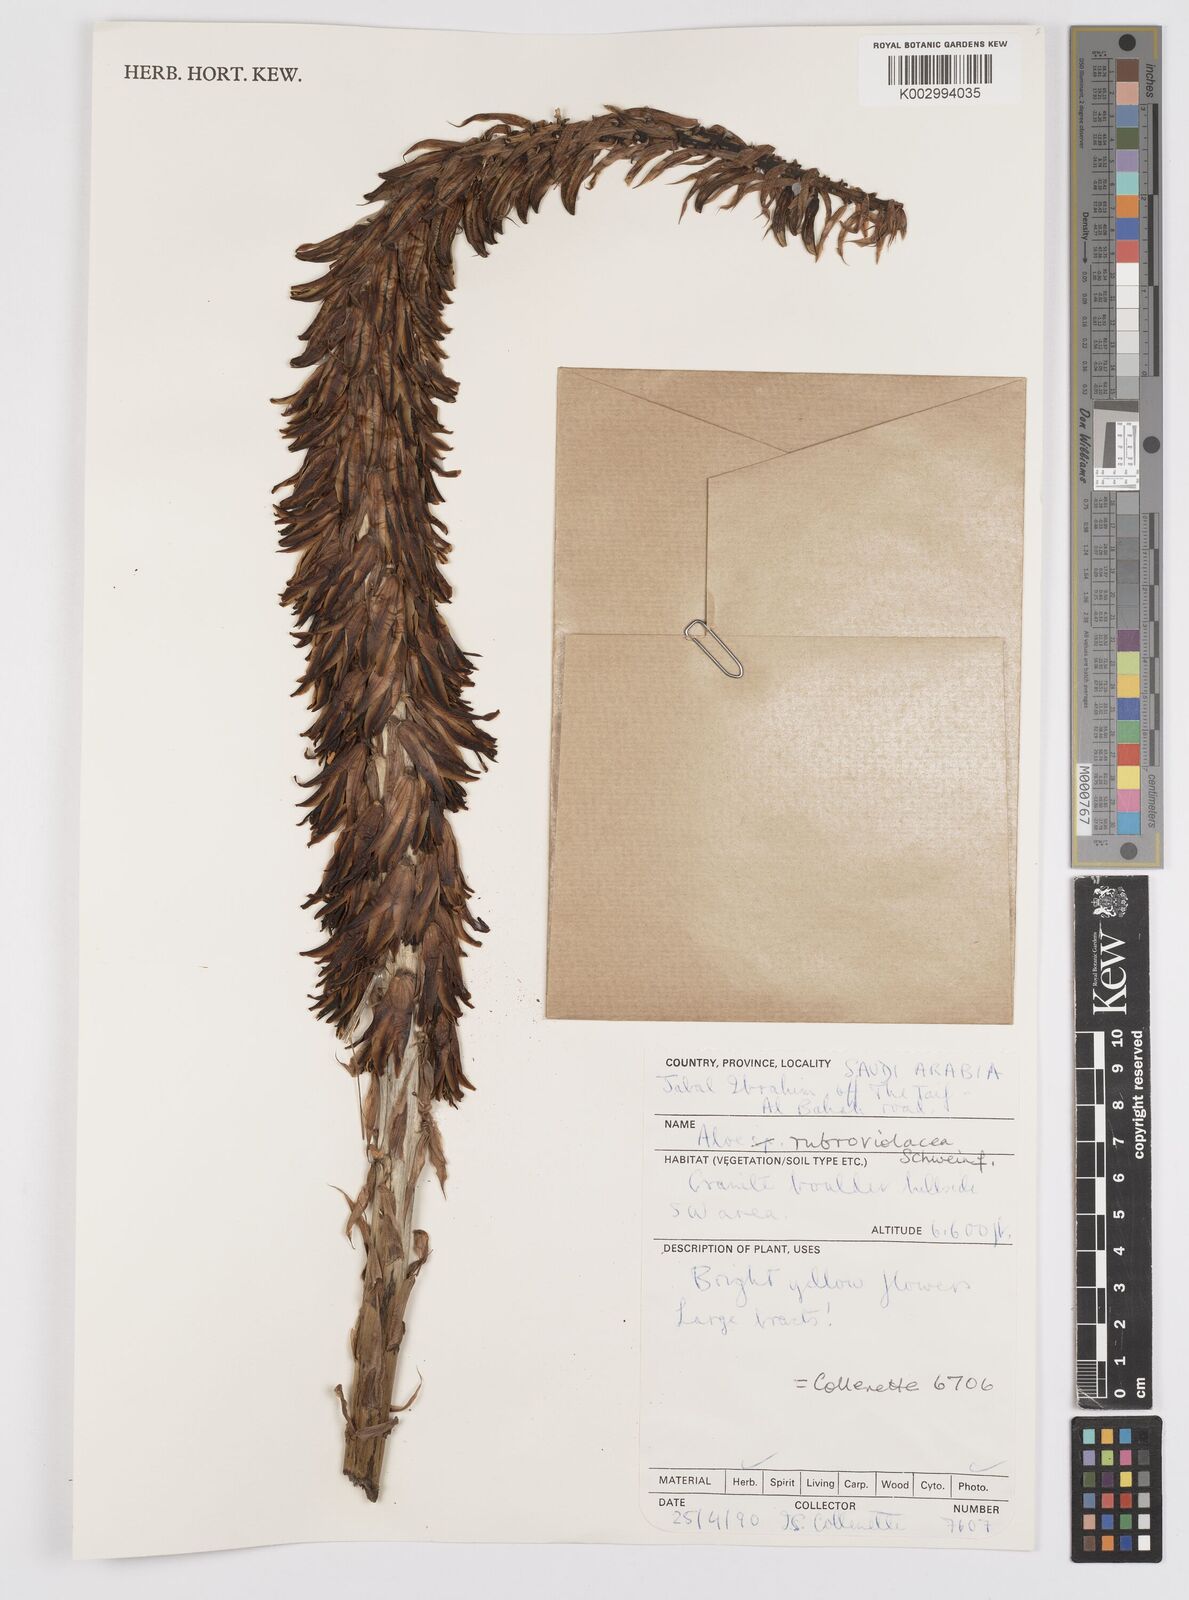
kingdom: Plantae
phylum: Tracheophyta
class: Liliopsida
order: Asparagales
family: Asphodelaceae
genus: Aloe
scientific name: Aloe rubroviolacea
